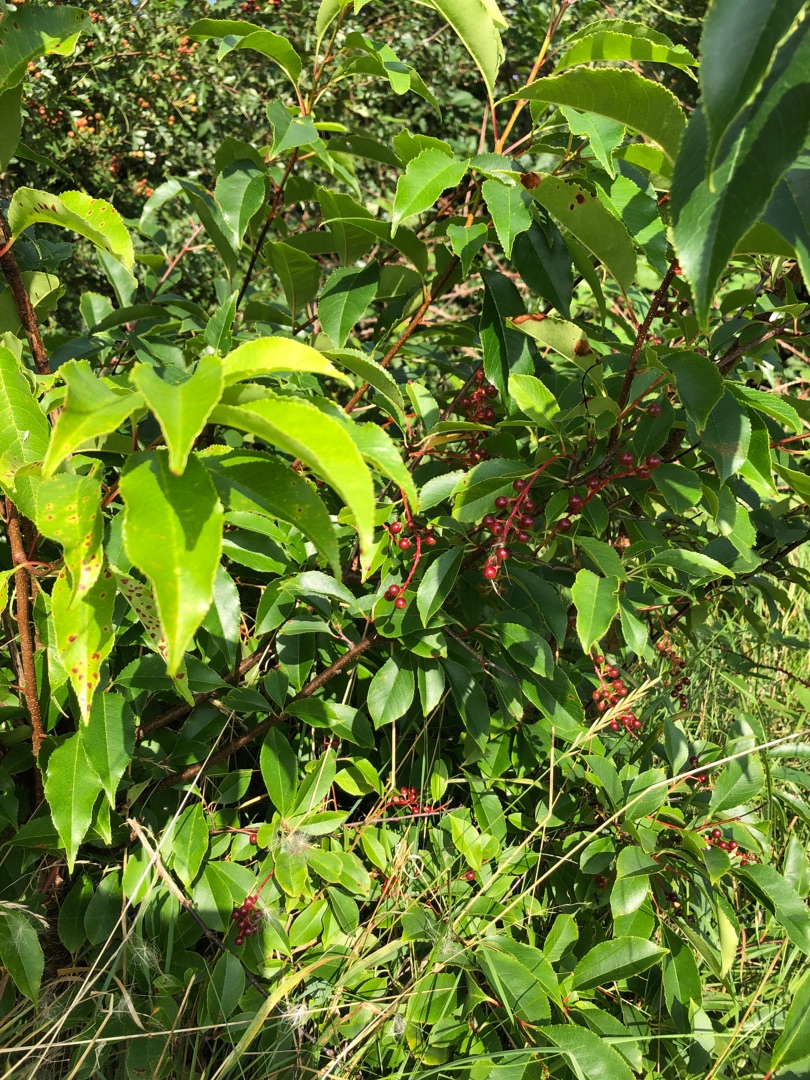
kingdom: Plantae
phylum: Tracheophyta
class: Magnoliopsida
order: Rosales
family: Rosaceae
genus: Prunus
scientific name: Prunus serotina
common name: Glansbladet hæg
